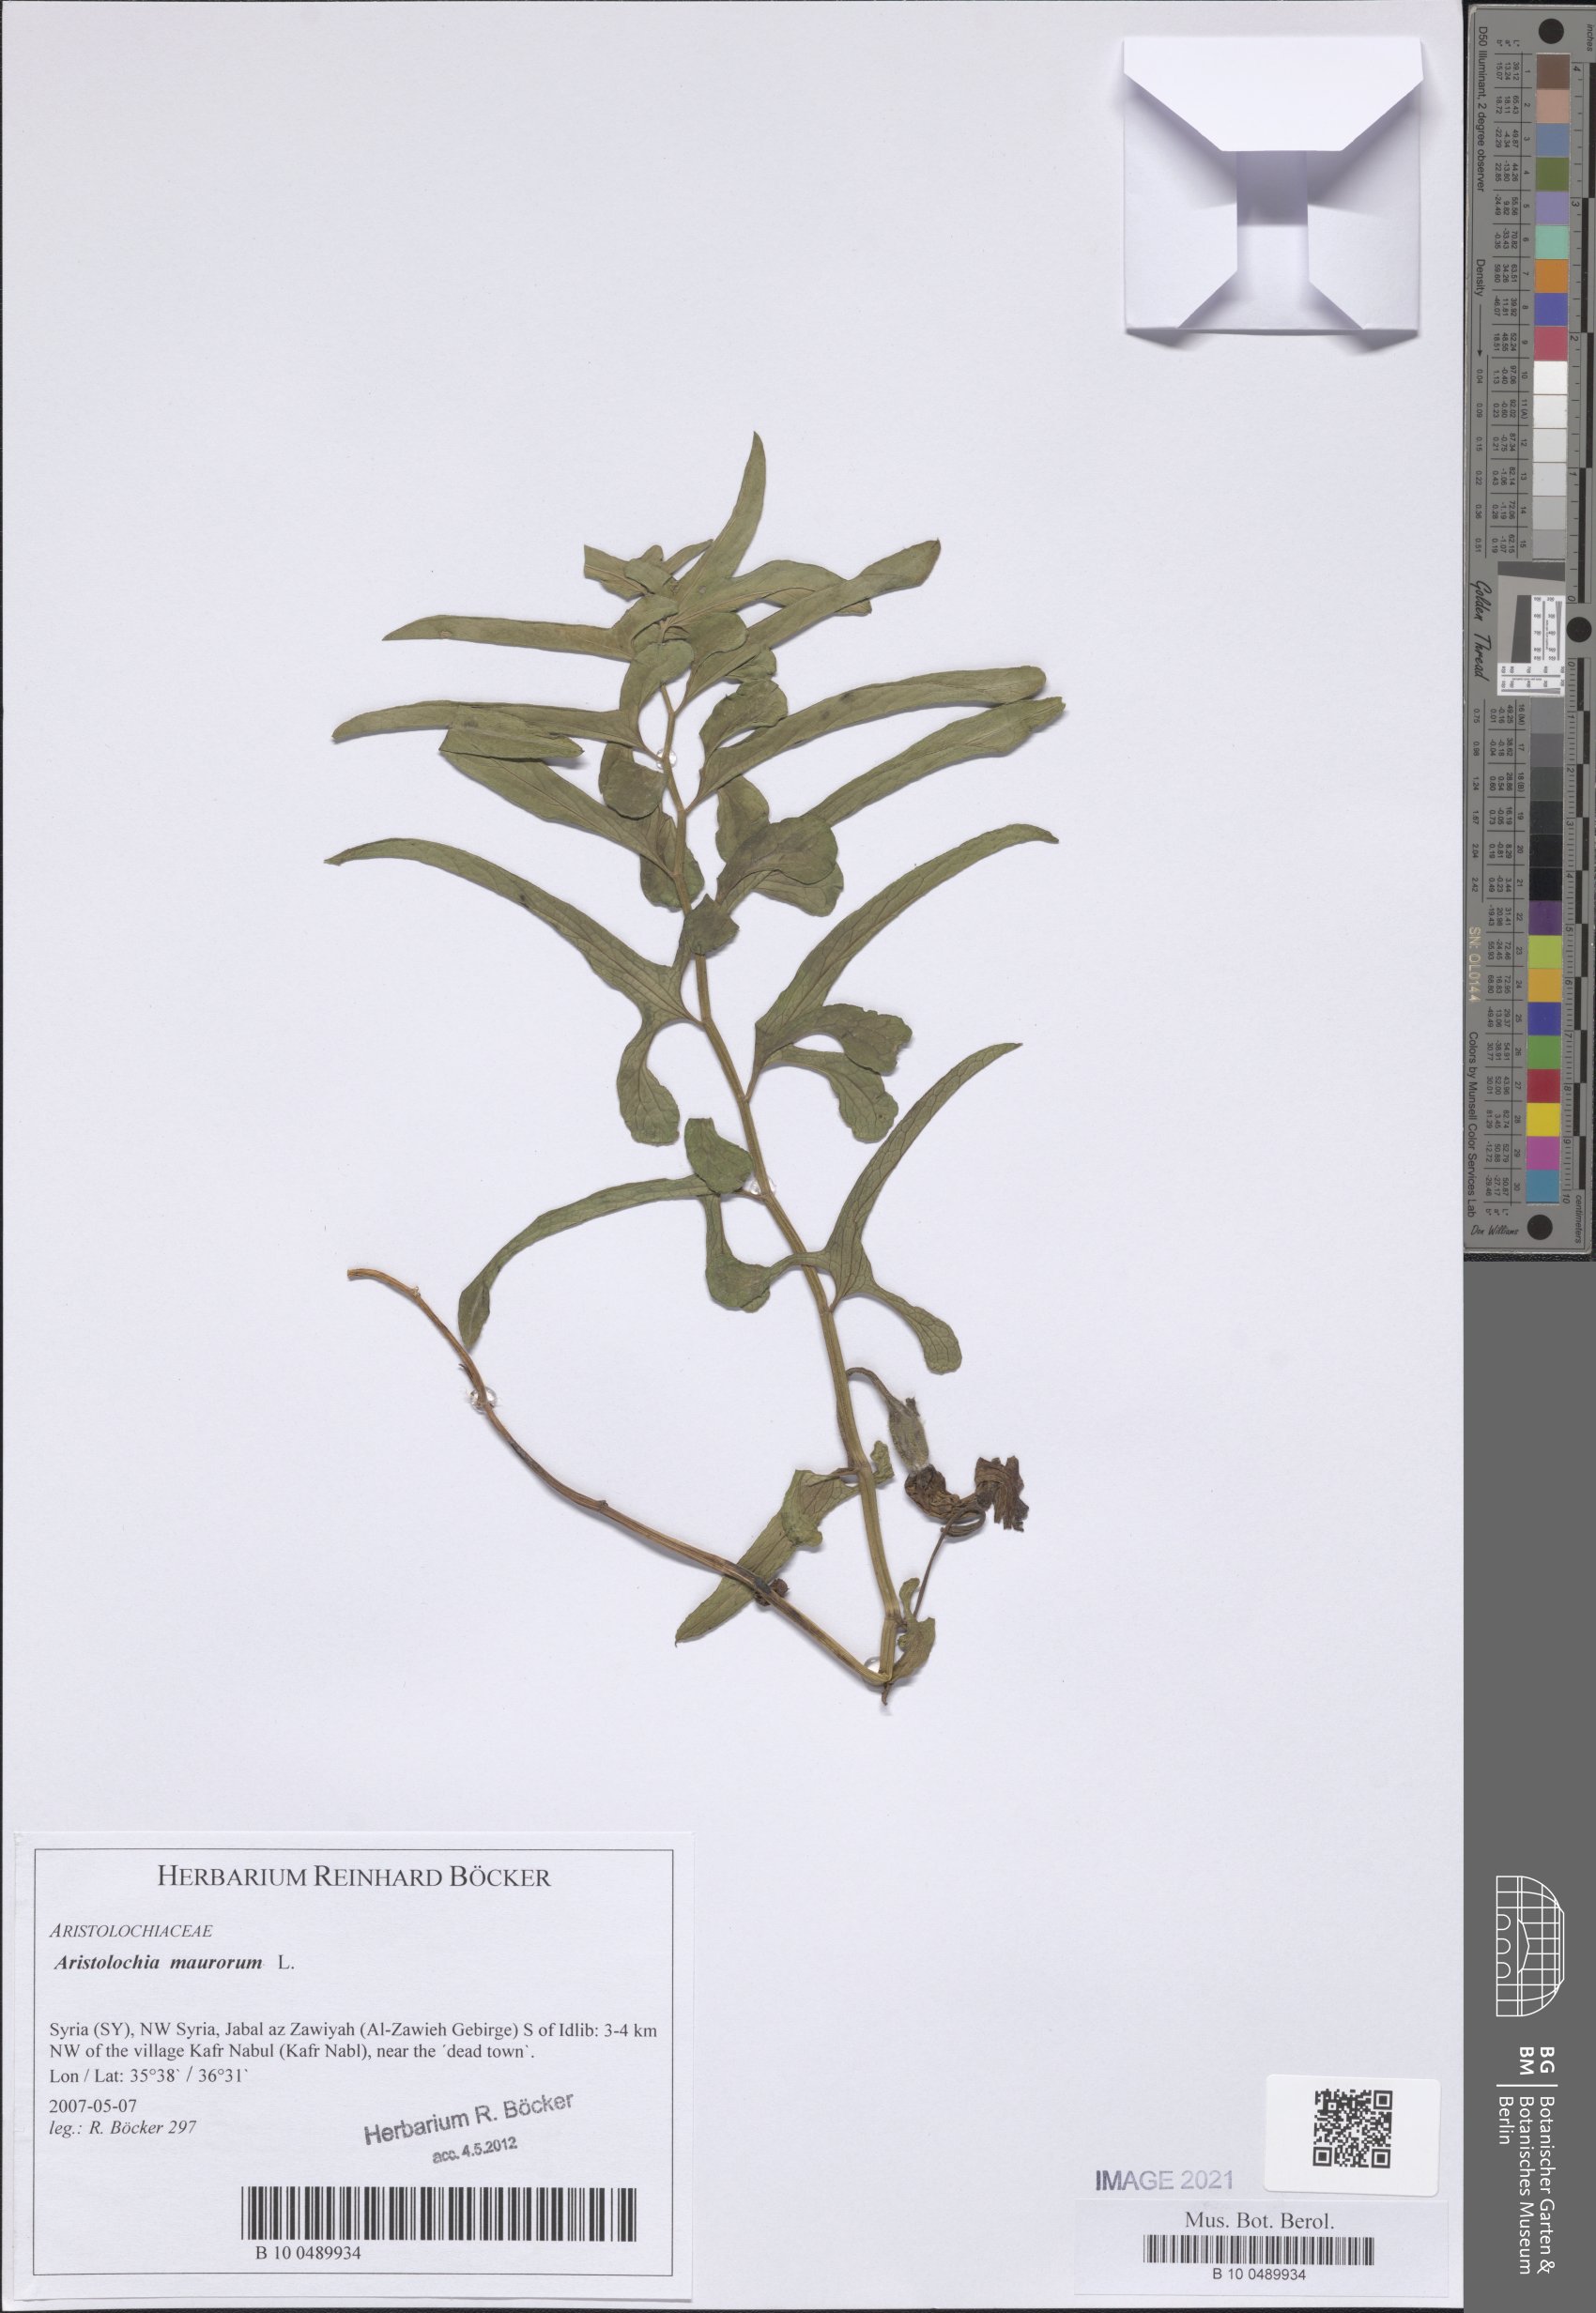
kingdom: Plantae
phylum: Tracheophyta
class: Magnoliopsida
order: Piperales
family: Aristolochiaceae
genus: Aristolochia
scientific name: Aristolochia maurorum
